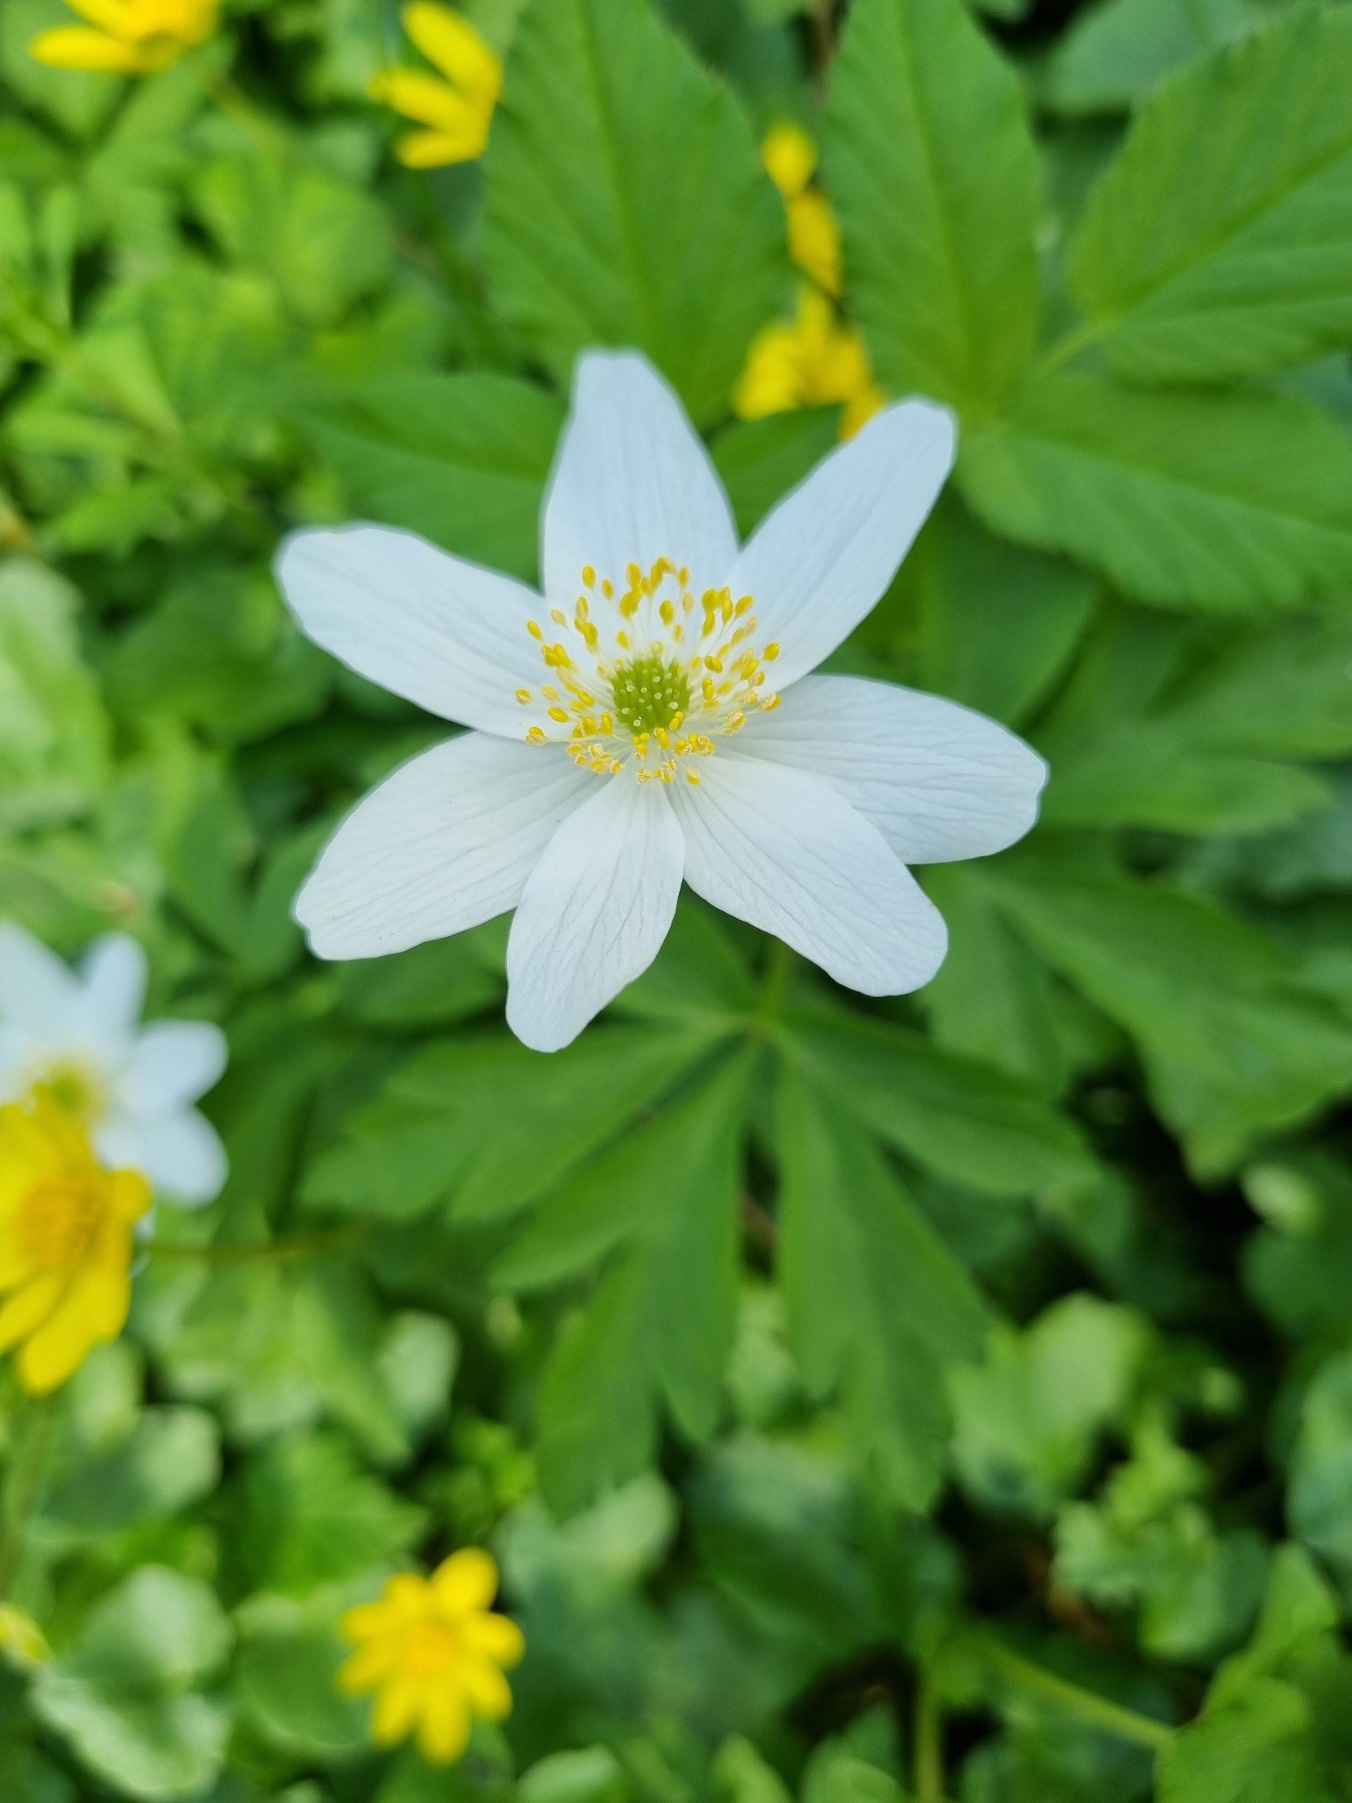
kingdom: Plantae
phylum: Tracheophyta
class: Magnoliopsida
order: Ranunculales
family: Ranunculaceae
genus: Anemone
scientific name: Anemone nemorosa
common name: Hvid anemone
